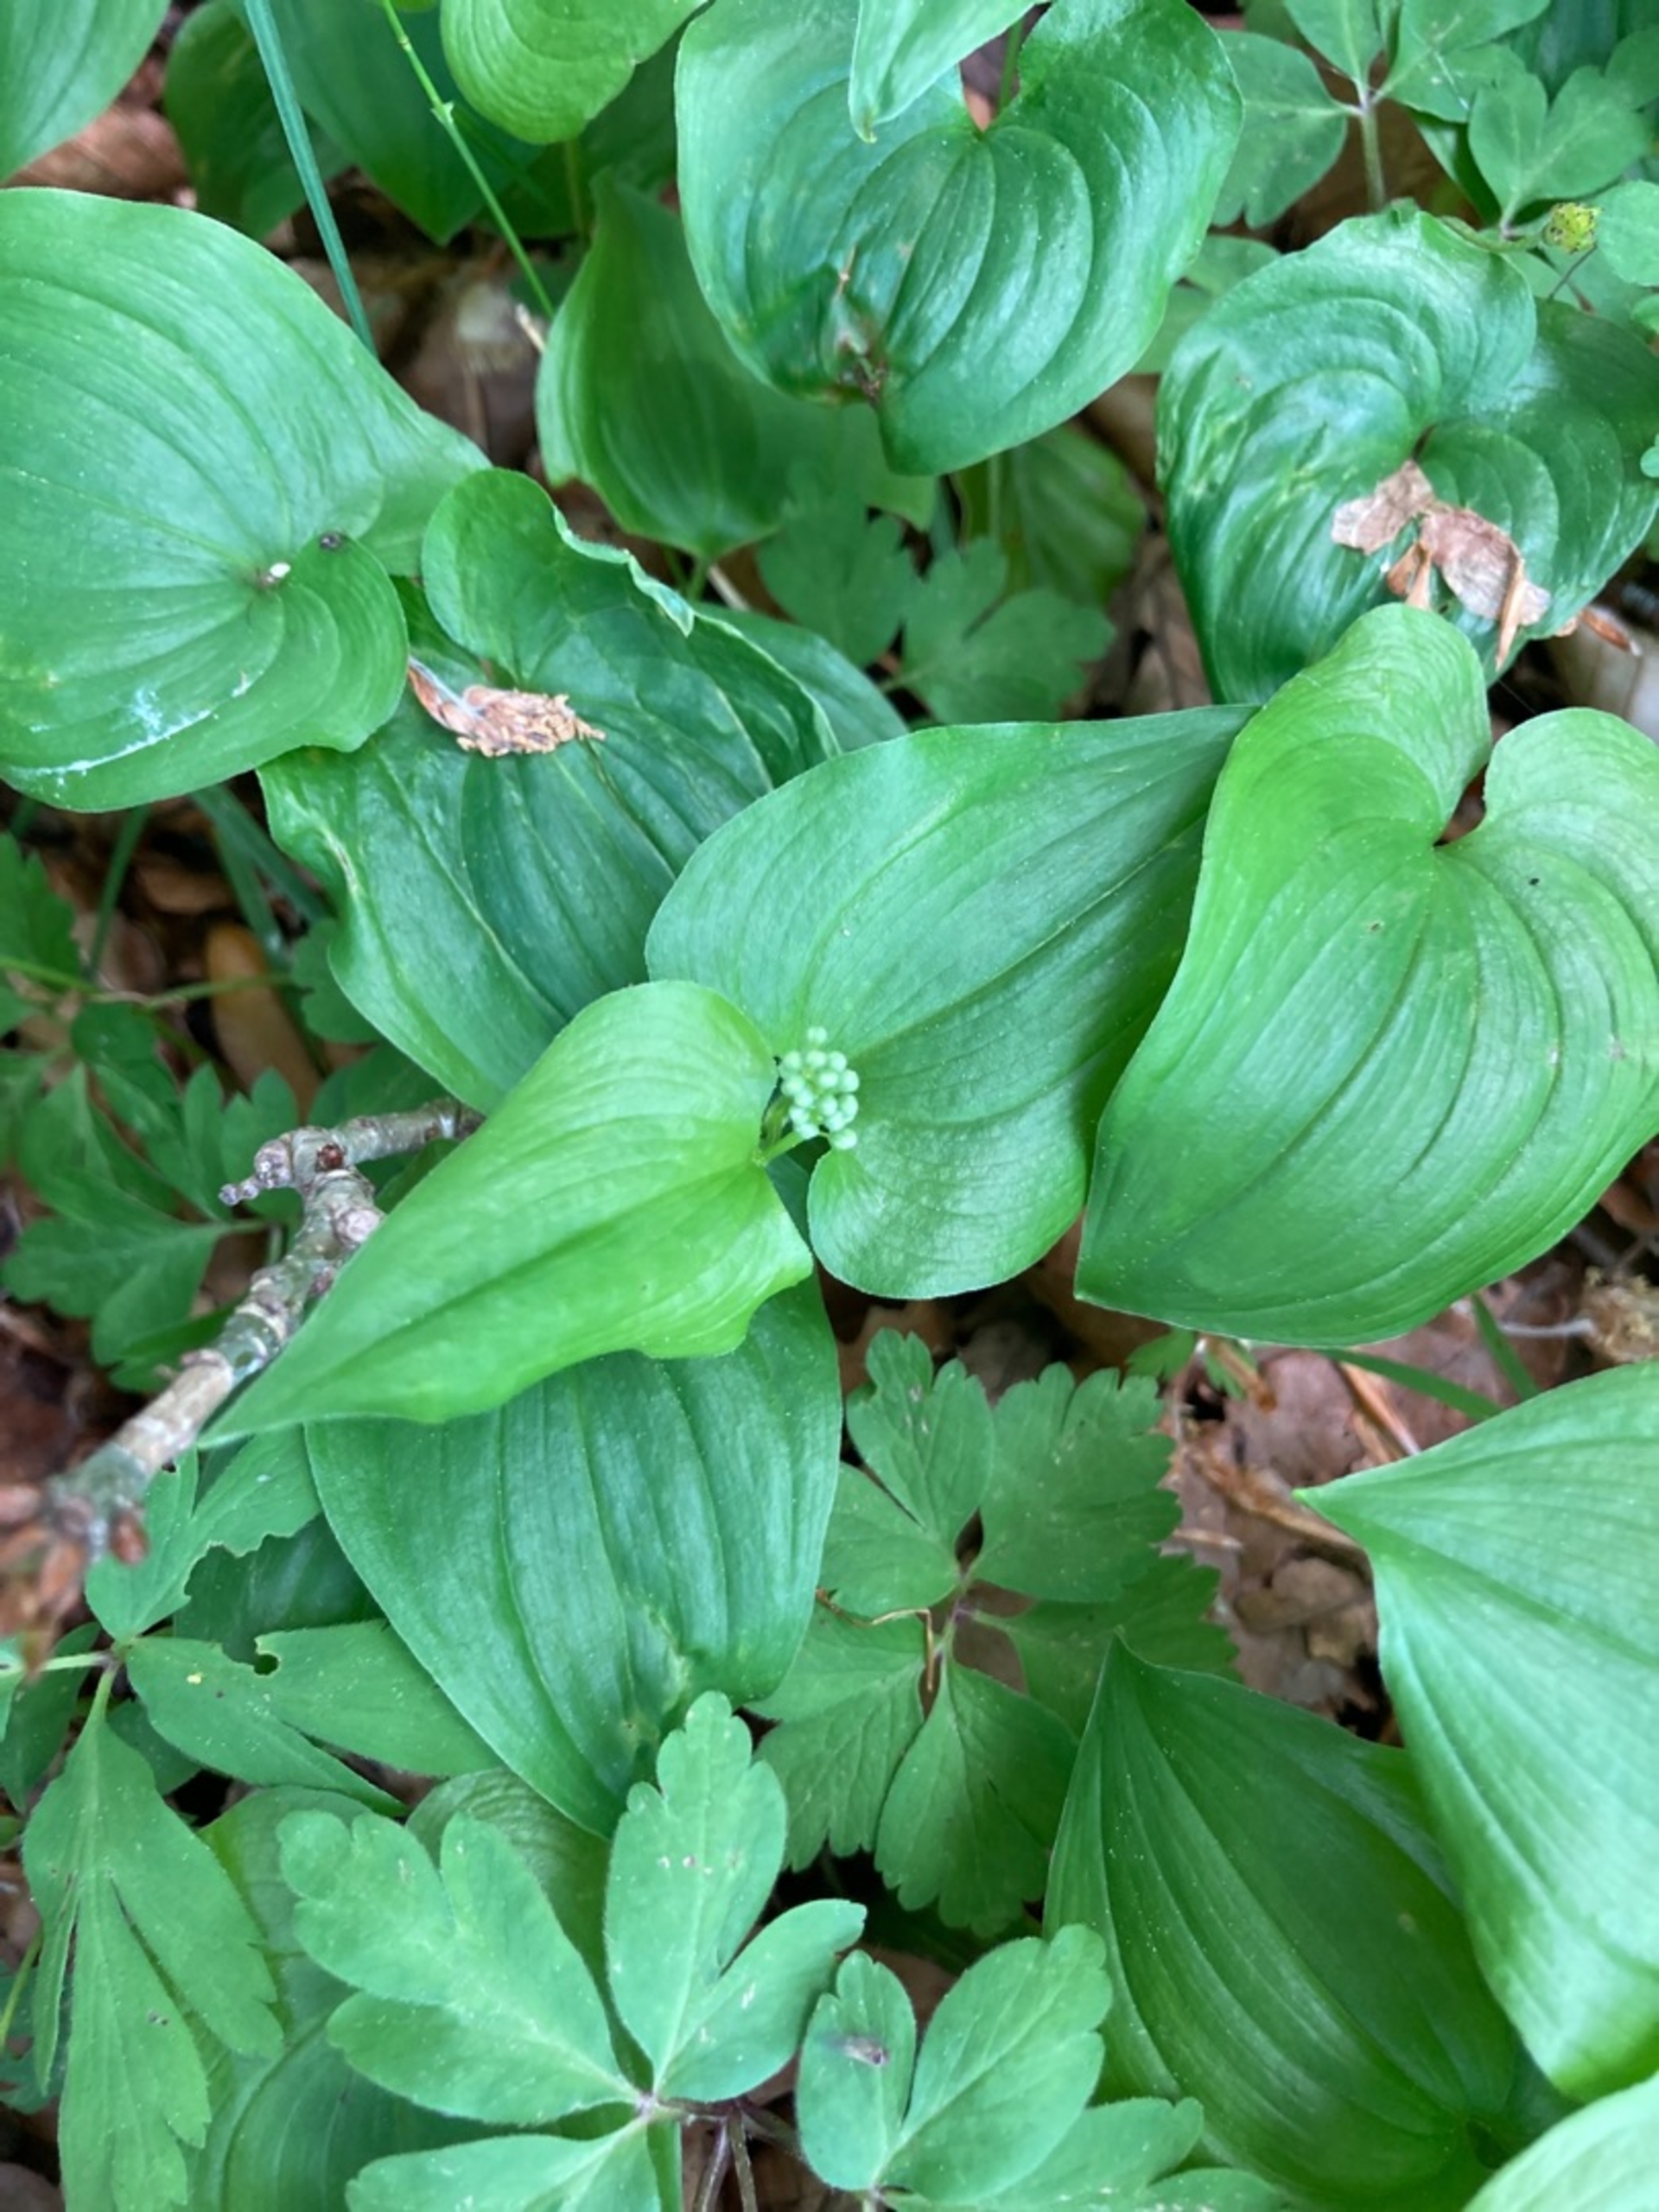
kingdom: Plantae
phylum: Tracheophyta
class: Liliopsida
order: Asparagales
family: Asparagaceae
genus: Maianthemum
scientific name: Maianthemum bifolium
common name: Majblomst
